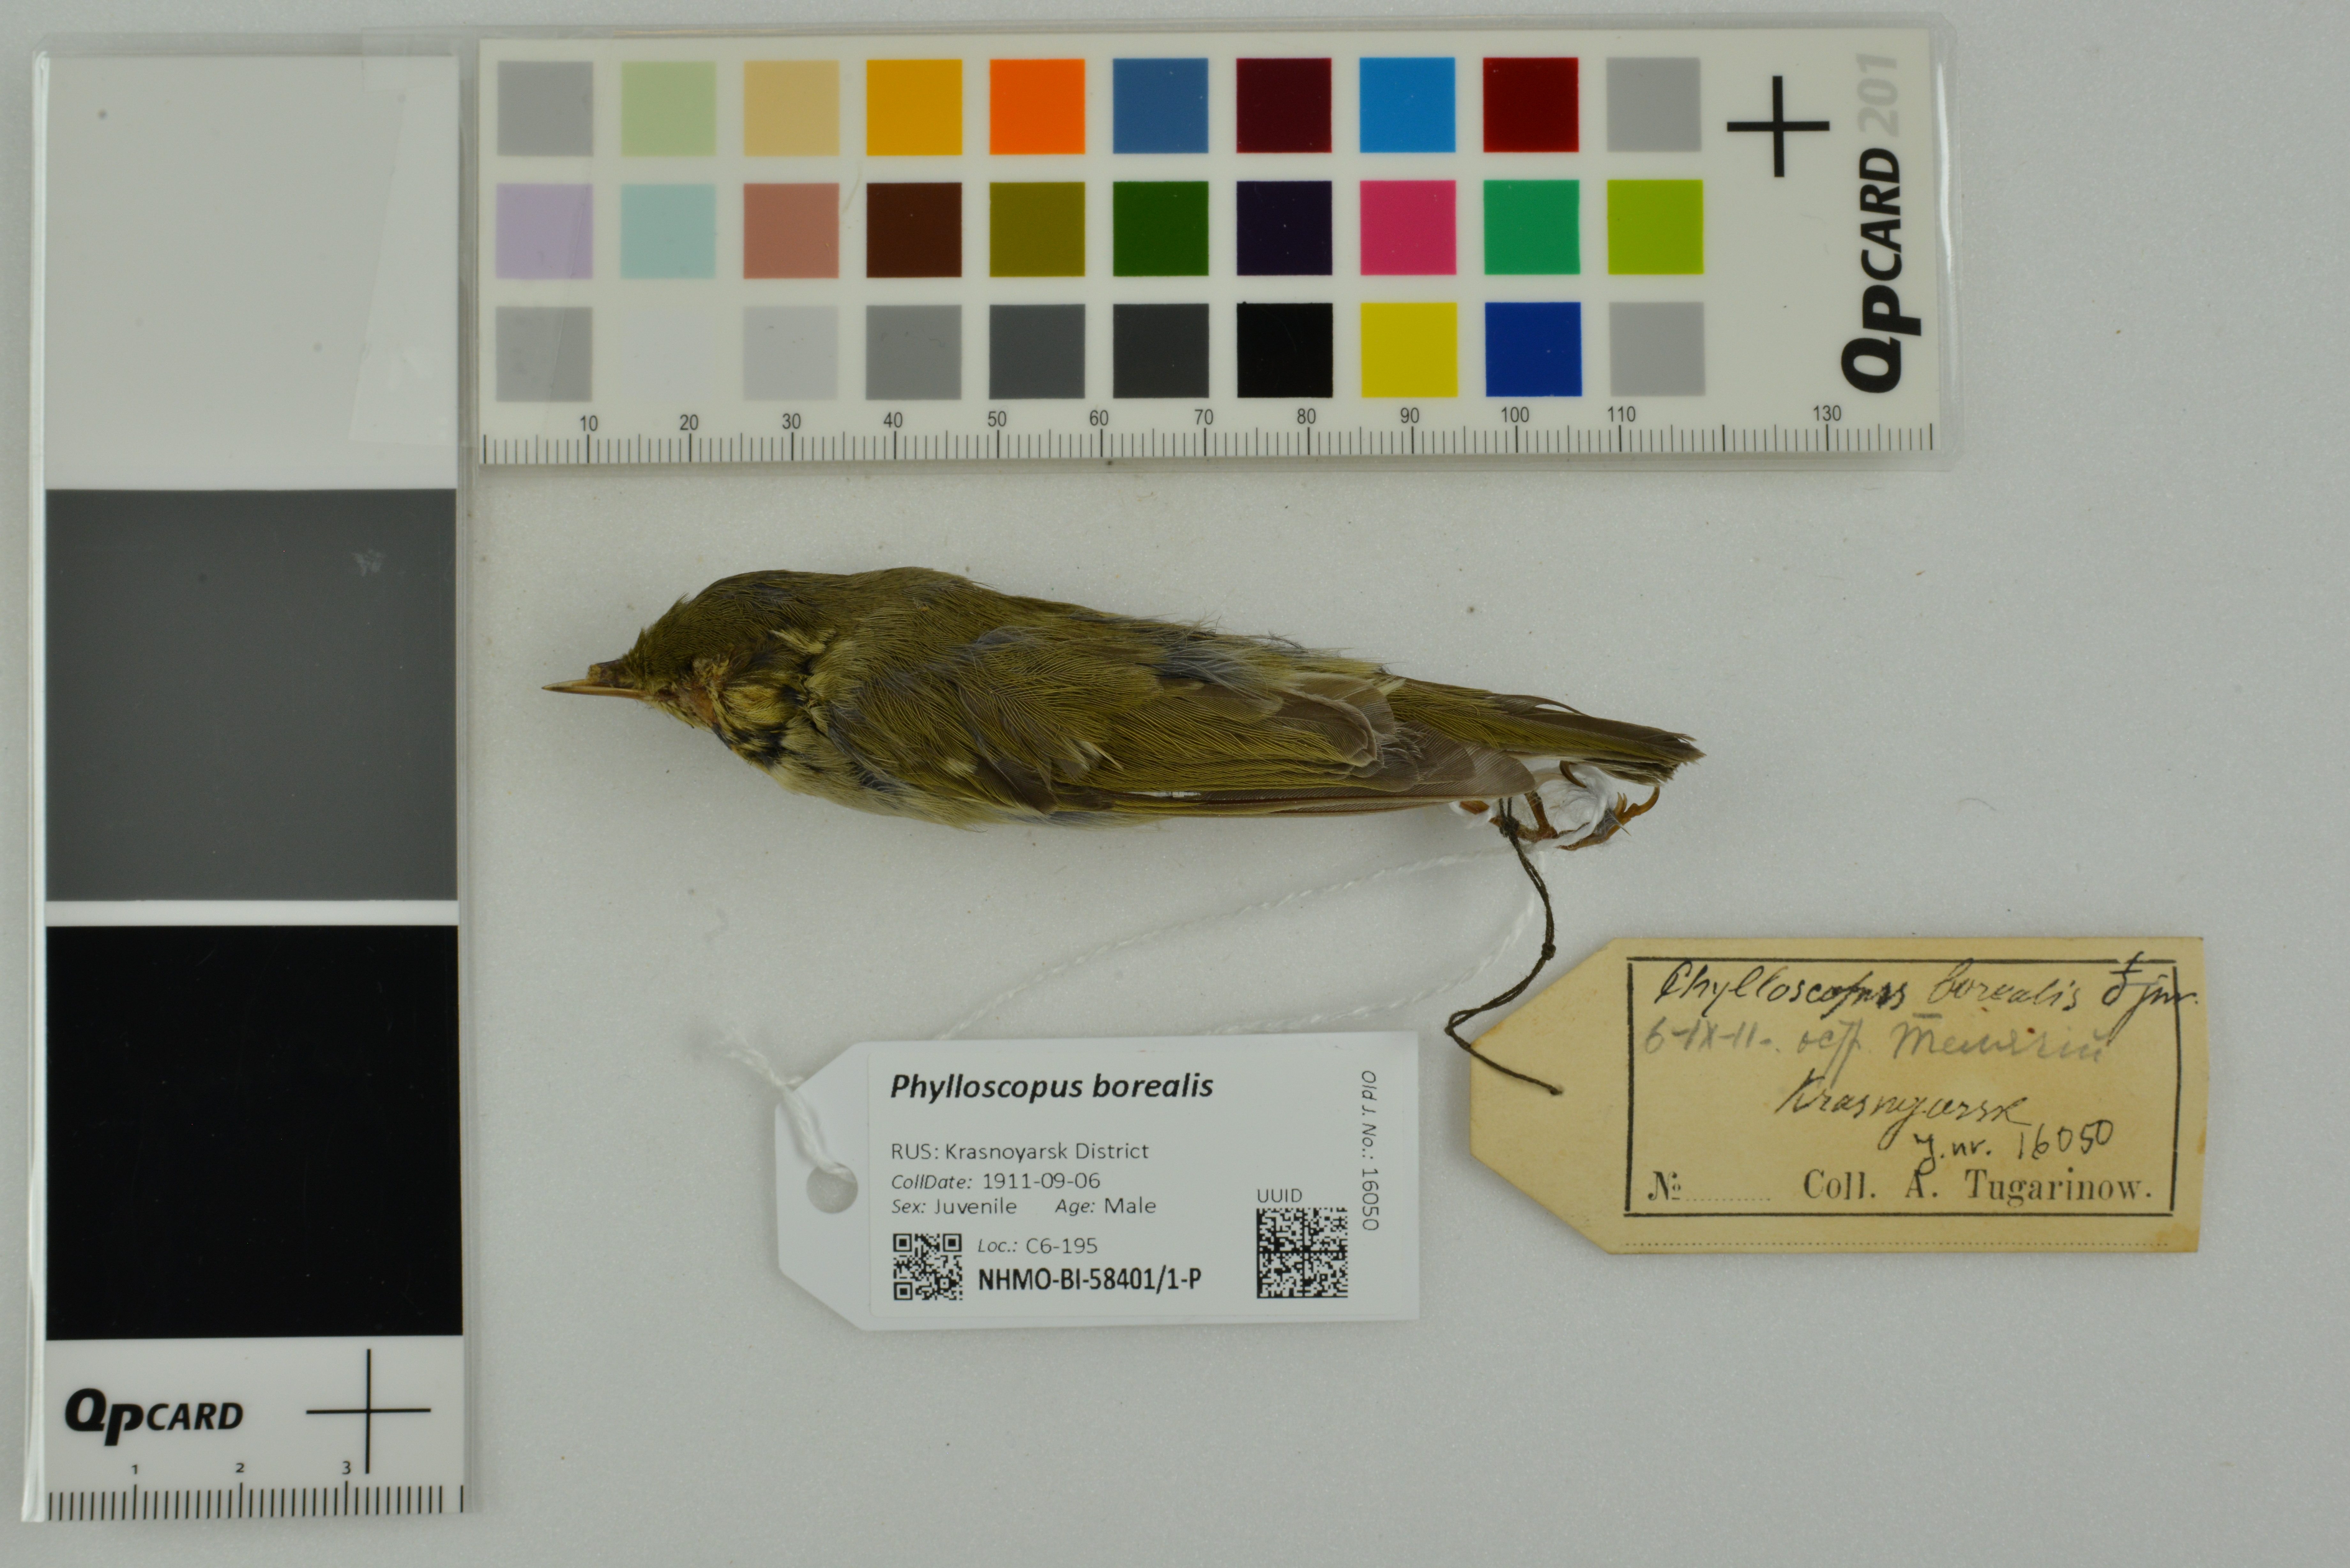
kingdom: Animalia
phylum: Chordata
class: Aves
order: Passeriformes
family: Phylloscopidae
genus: Phylloscopus
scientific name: Phylloscopus borealis
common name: Arctic warbler
